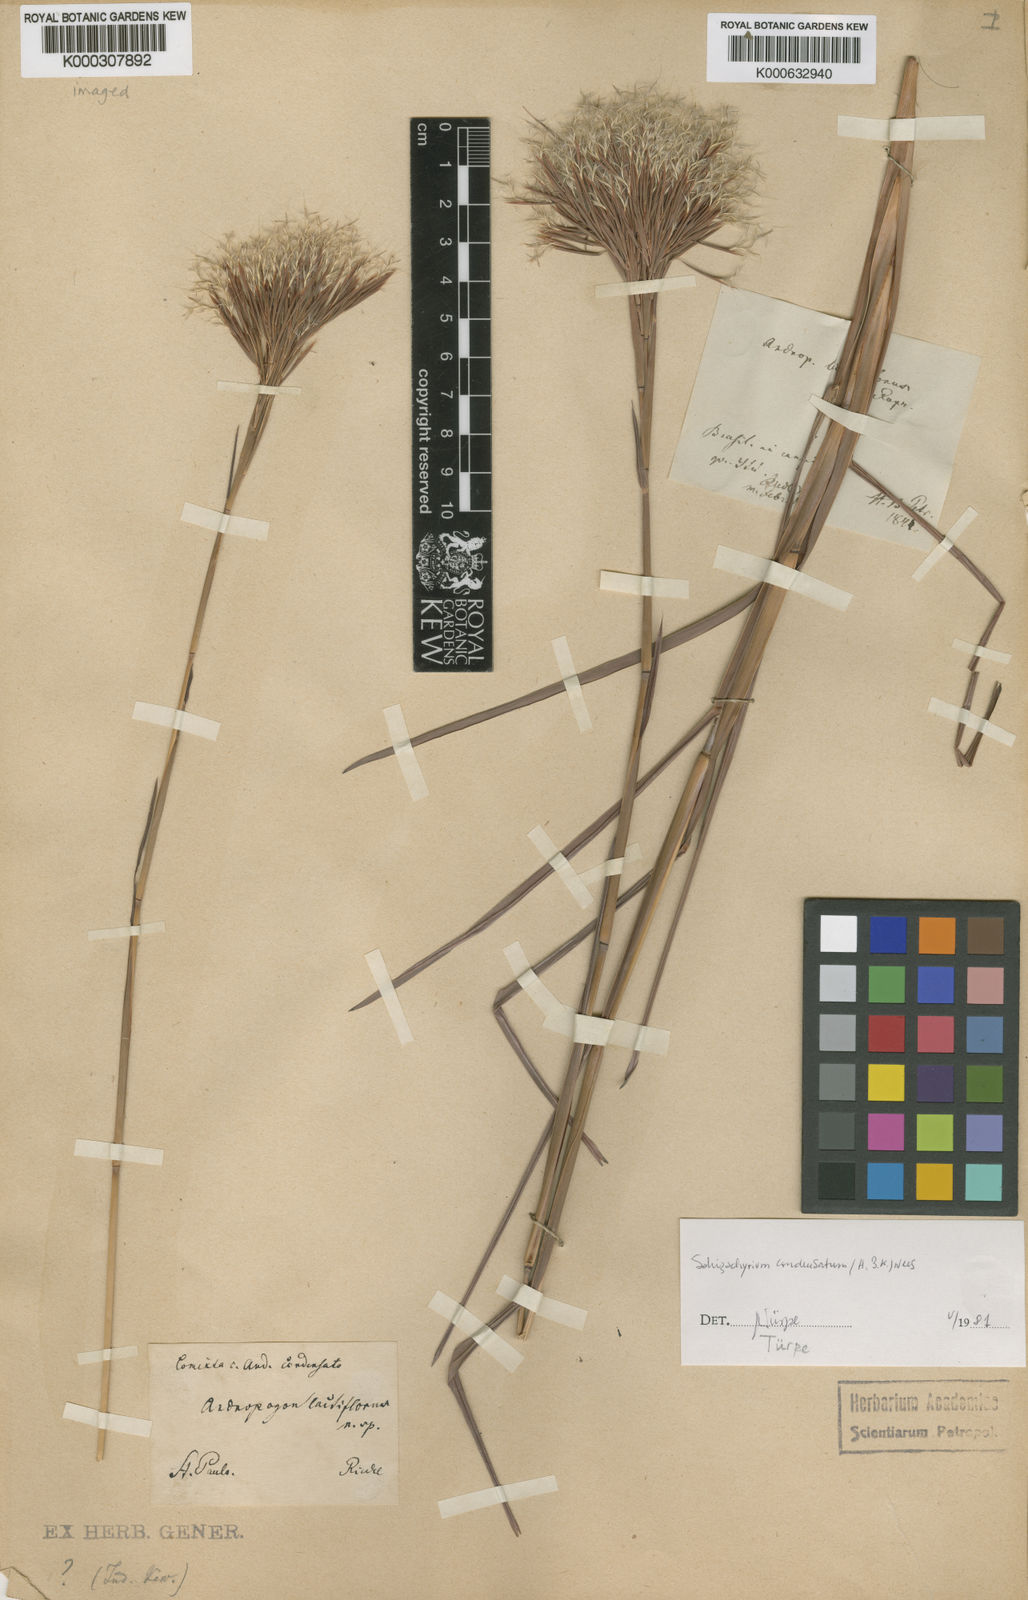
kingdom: Plantae
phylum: Tracheophyta
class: Liliopsida
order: Poales
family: Poaceae
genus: Schizachyrium
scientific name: Schizachyrium condensatum
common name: Bush beardgrass
